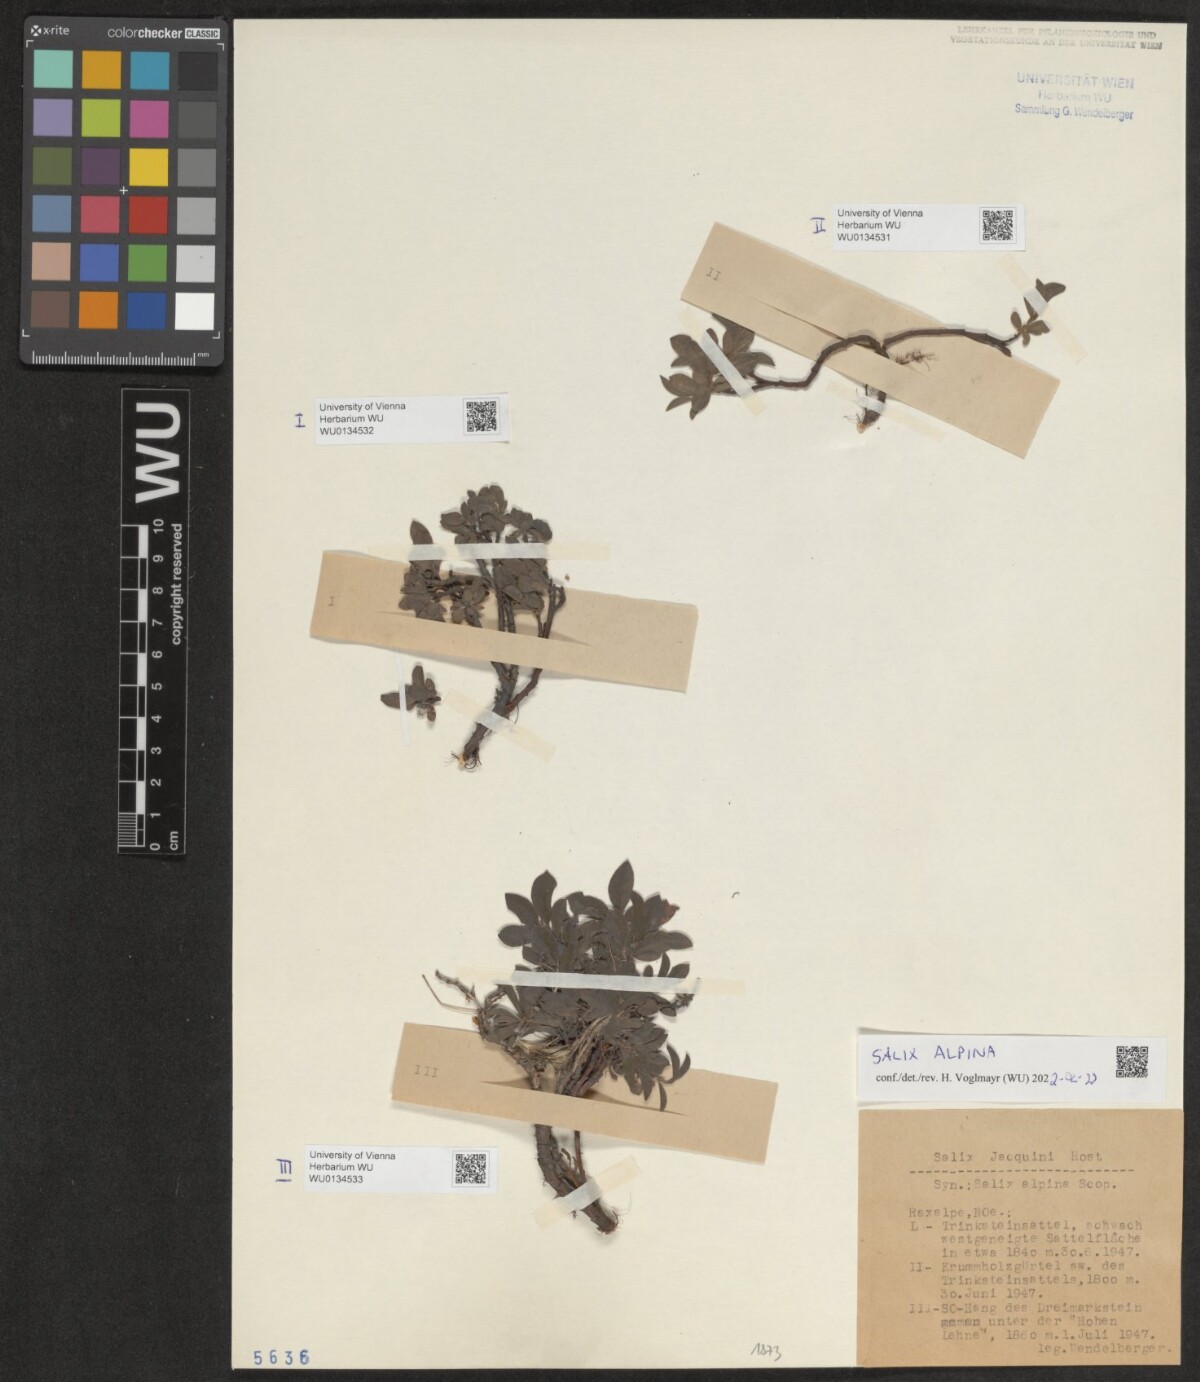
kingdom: Plantae
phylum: Tracheophyta
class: Magnoliopsida
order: Malpighiales
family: Salicaceae
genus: Salix
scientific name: Salix alpina
